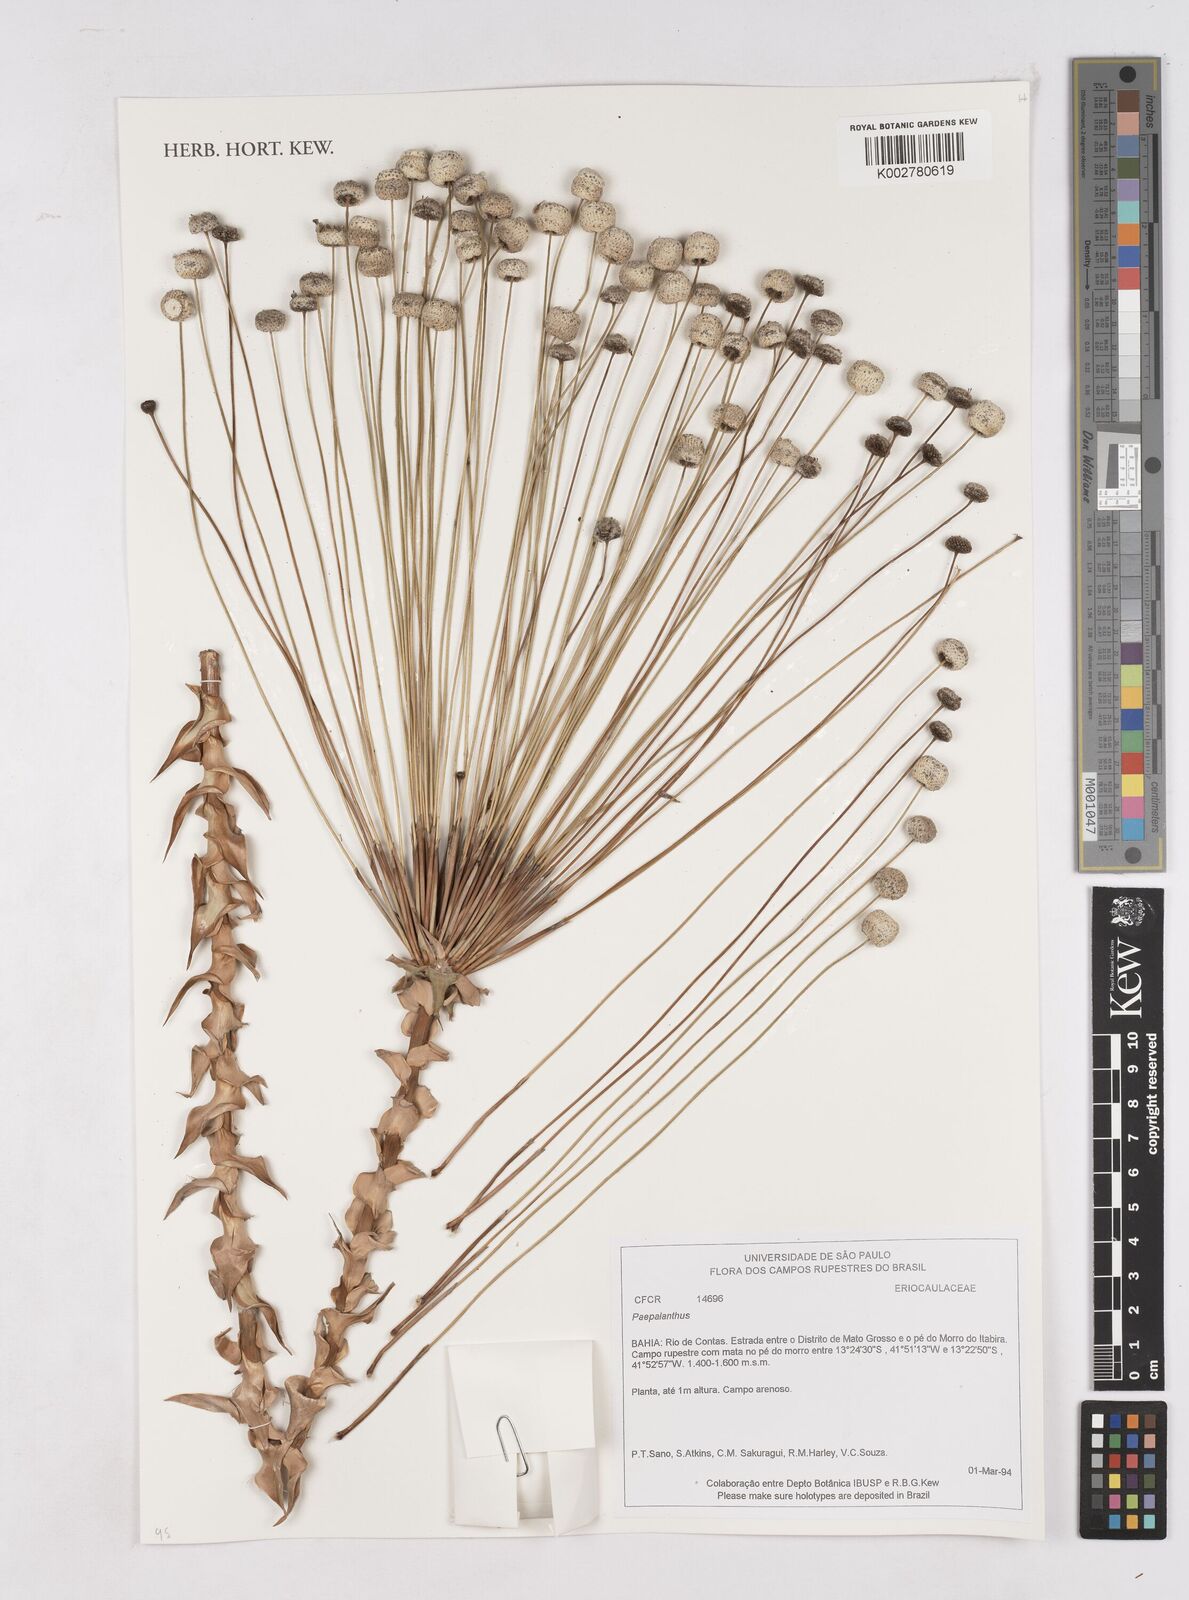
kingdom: Plantae
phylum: Tracheophyta
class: Liliopsida
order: Poales
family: Eriocaulaceae
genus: Paepalanthus
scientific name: Paepalanthus
